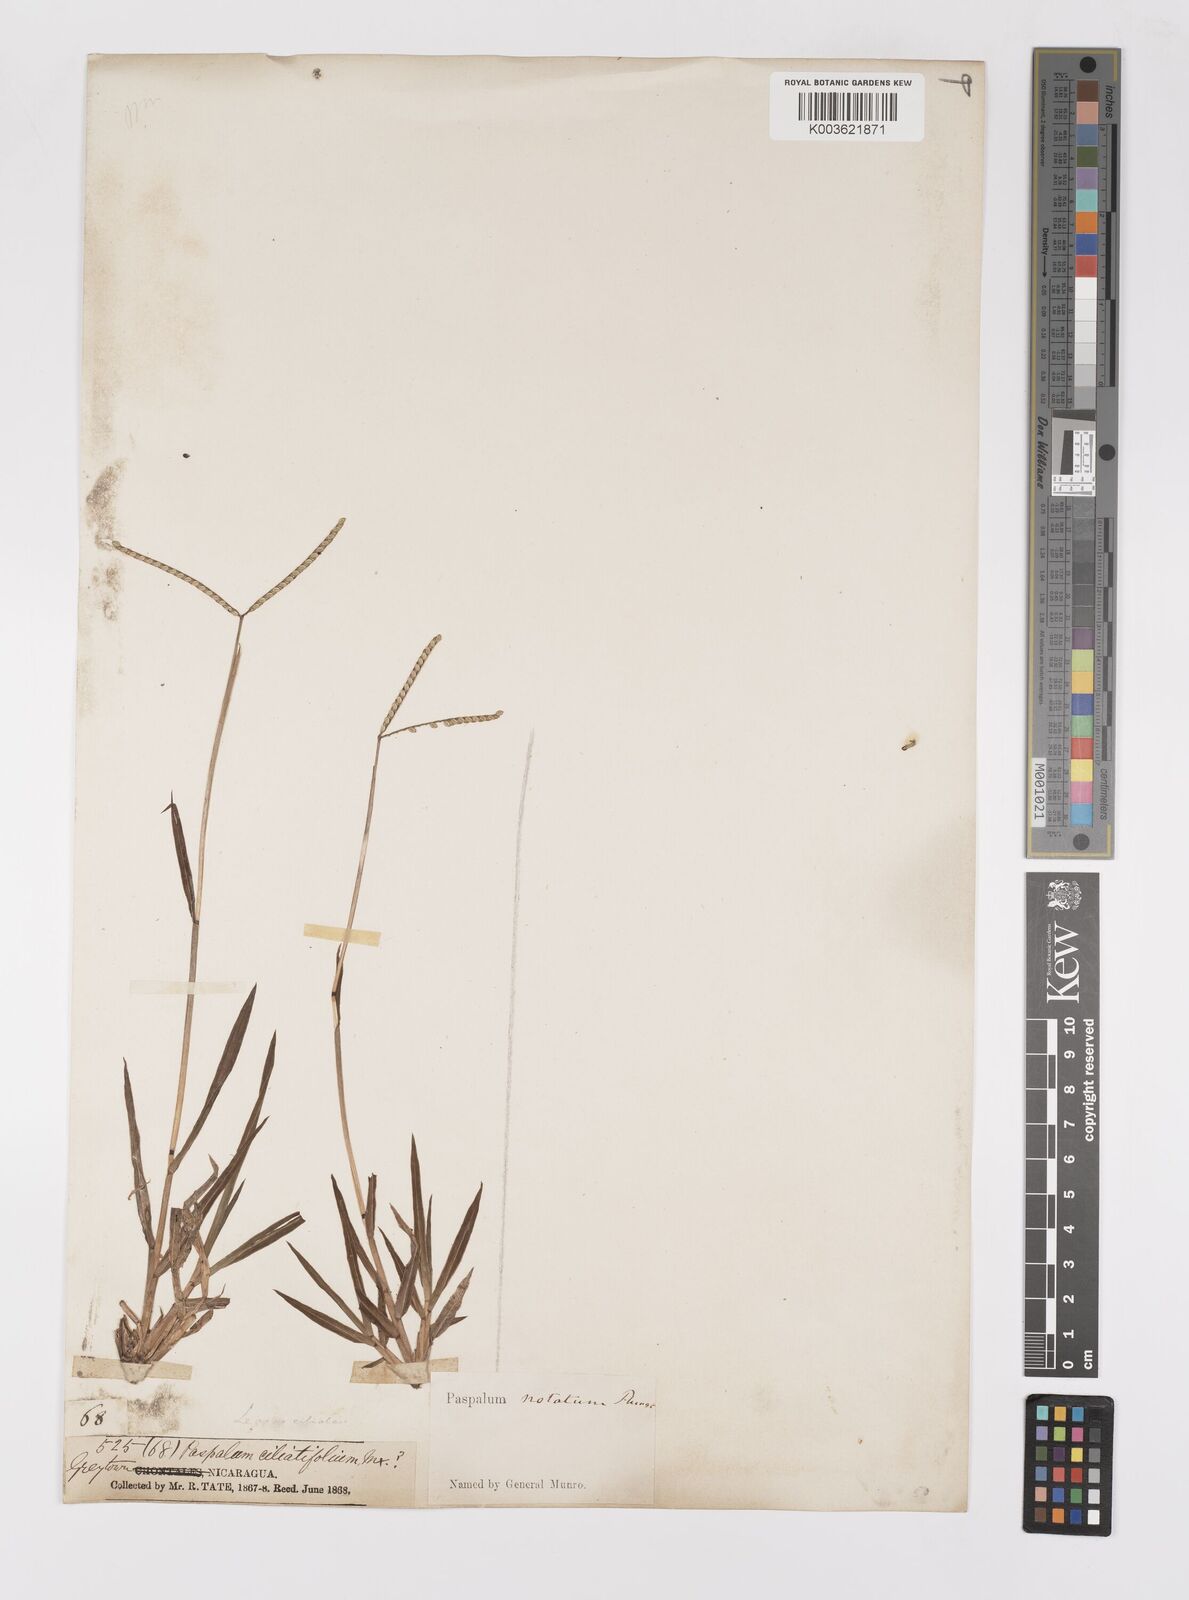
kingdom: Plantae
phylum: Tracheophyta
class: Liliopsida
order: Poales
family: Poaceae
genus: Paspalum
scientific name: Paspalum minus
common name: Matted paspalum
